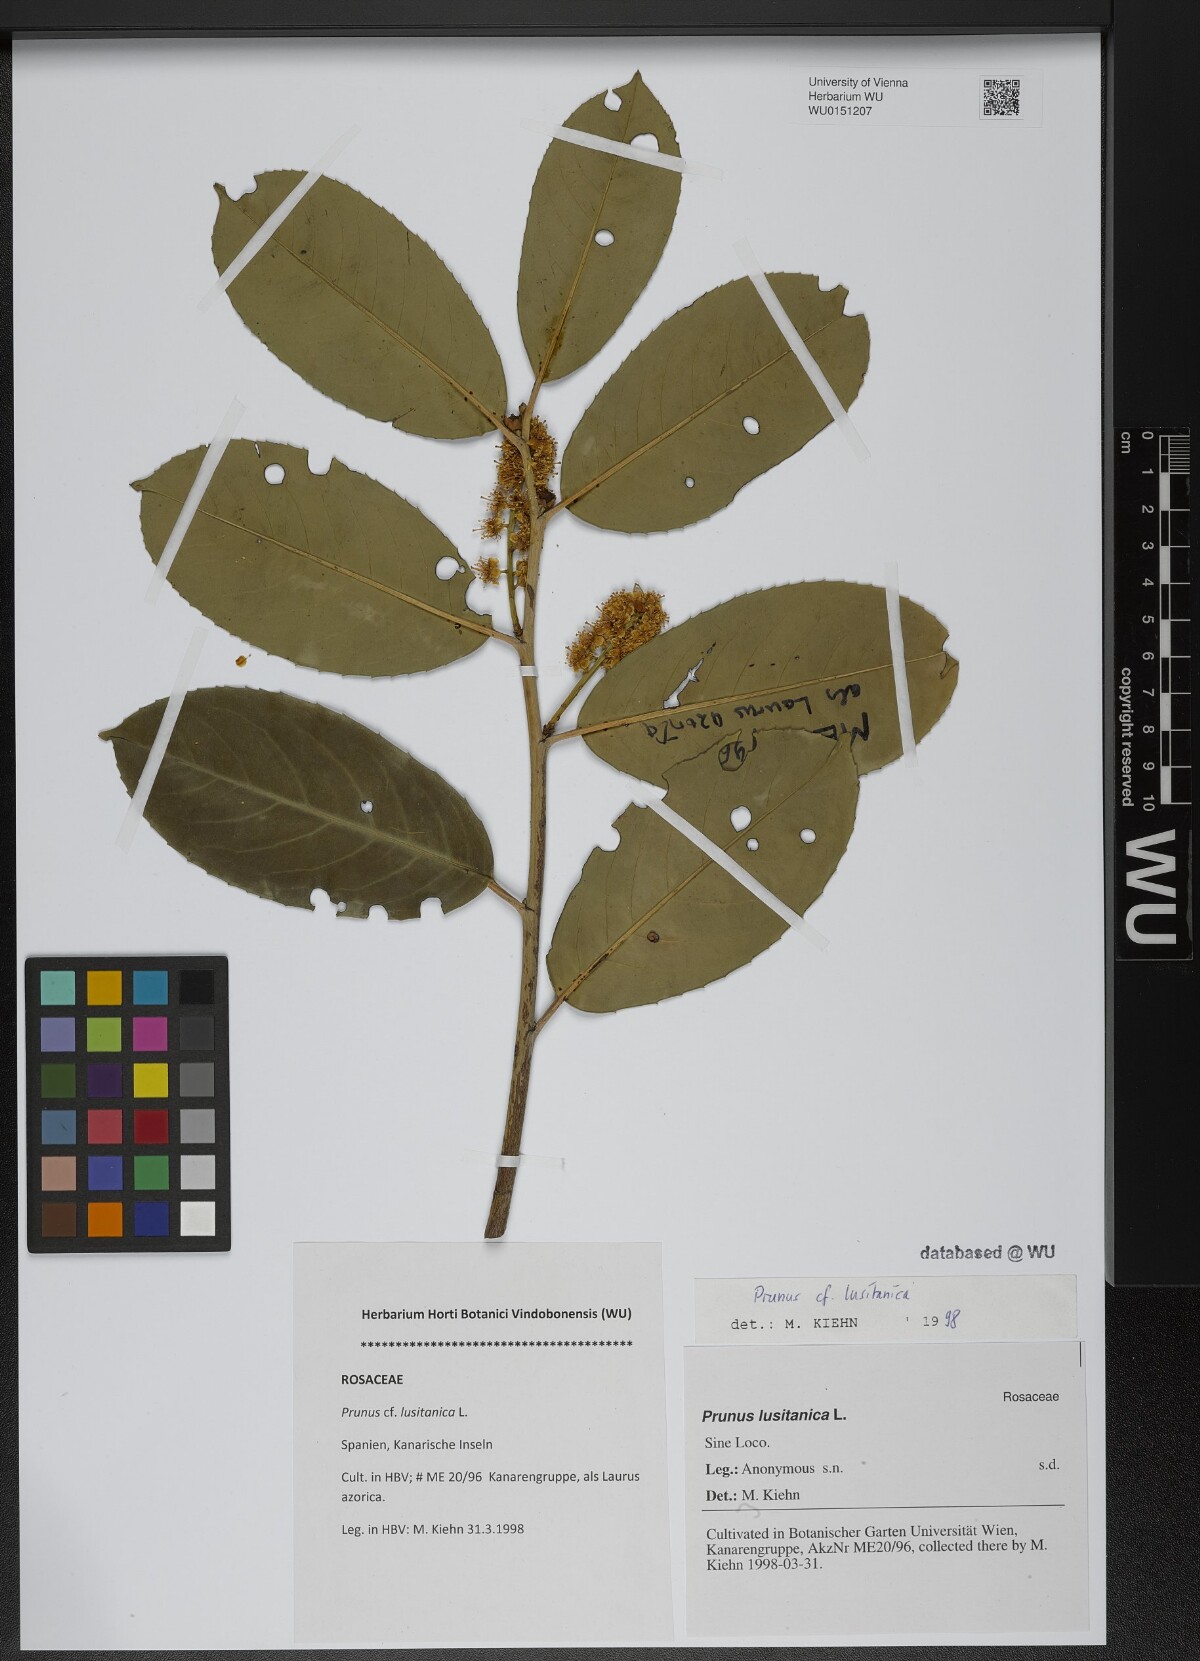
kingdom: Plantae
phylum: Tracheophyta
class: Magnoliopsida
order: Rosales
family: Rosaceae
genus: Prunus
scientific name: Prunus lusitanica
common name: Portugal laurel
